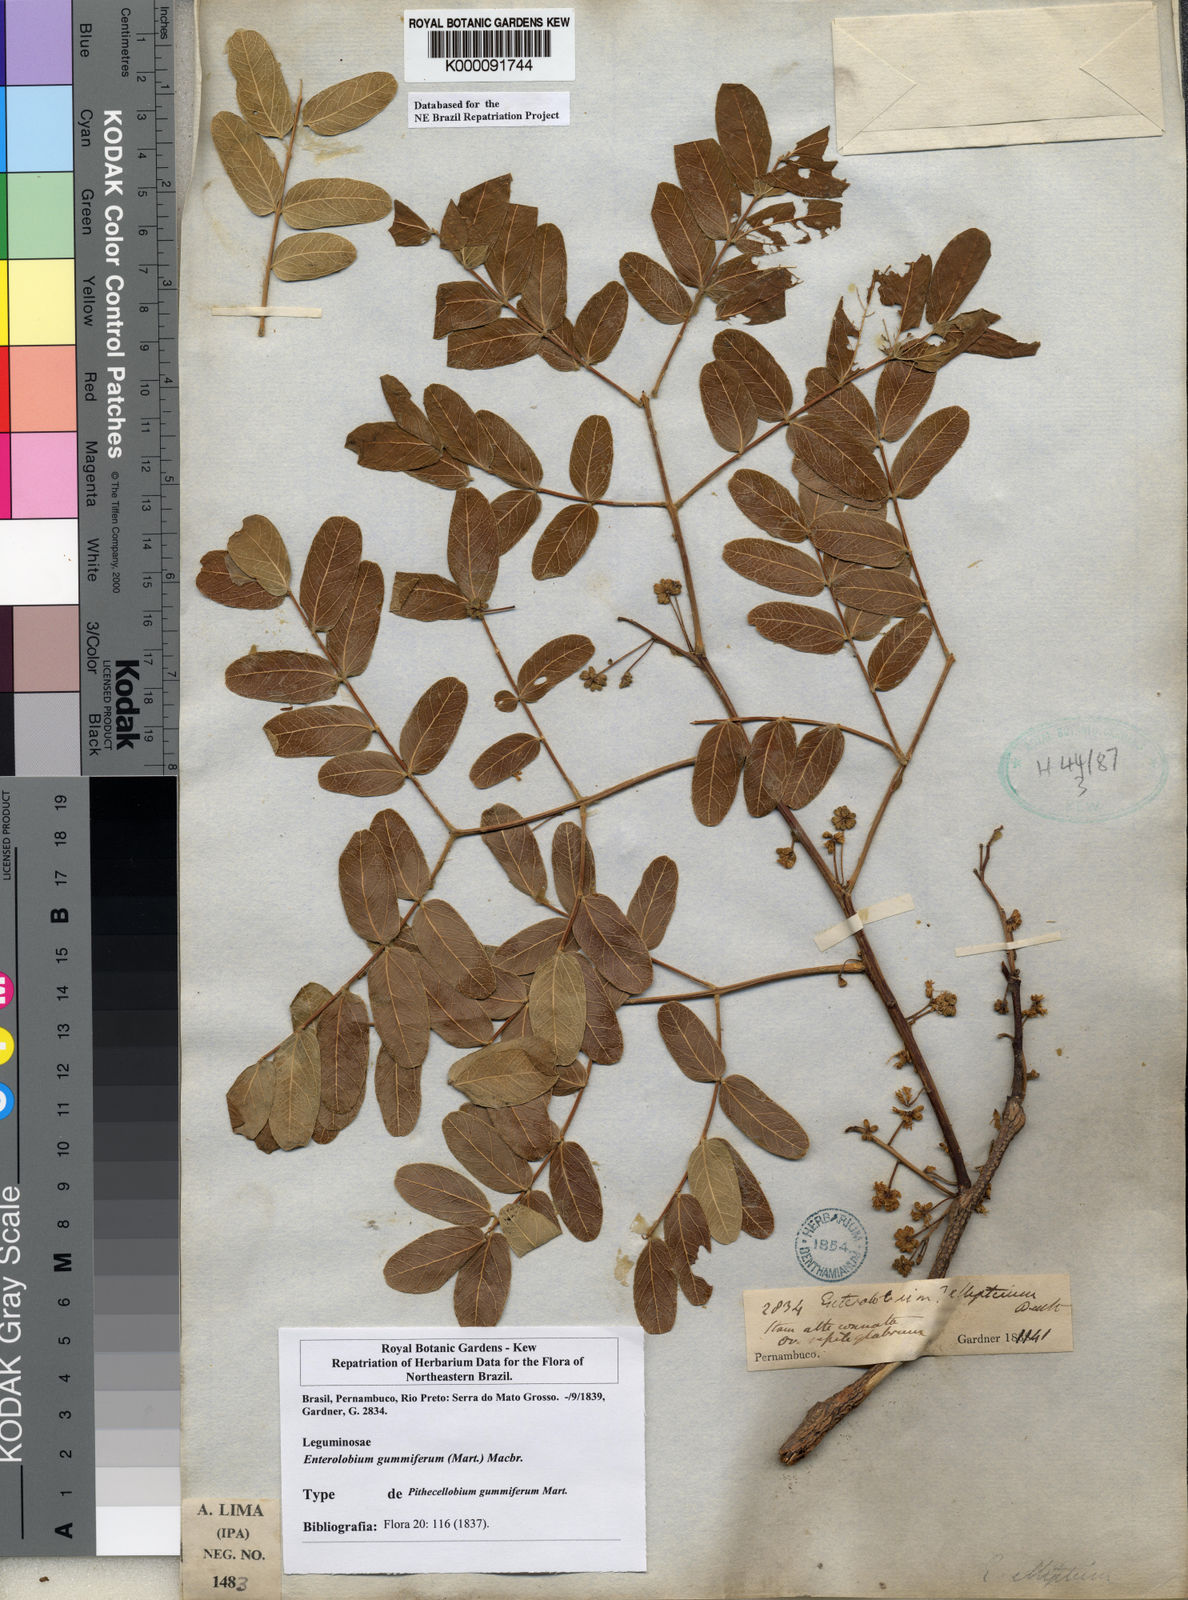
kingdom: Plantae
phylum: Tracheophyta
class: Magnoliopsida
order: Fabales
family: Fabaceae
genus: Enterolobium
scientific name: Enterolobium gummiferum
